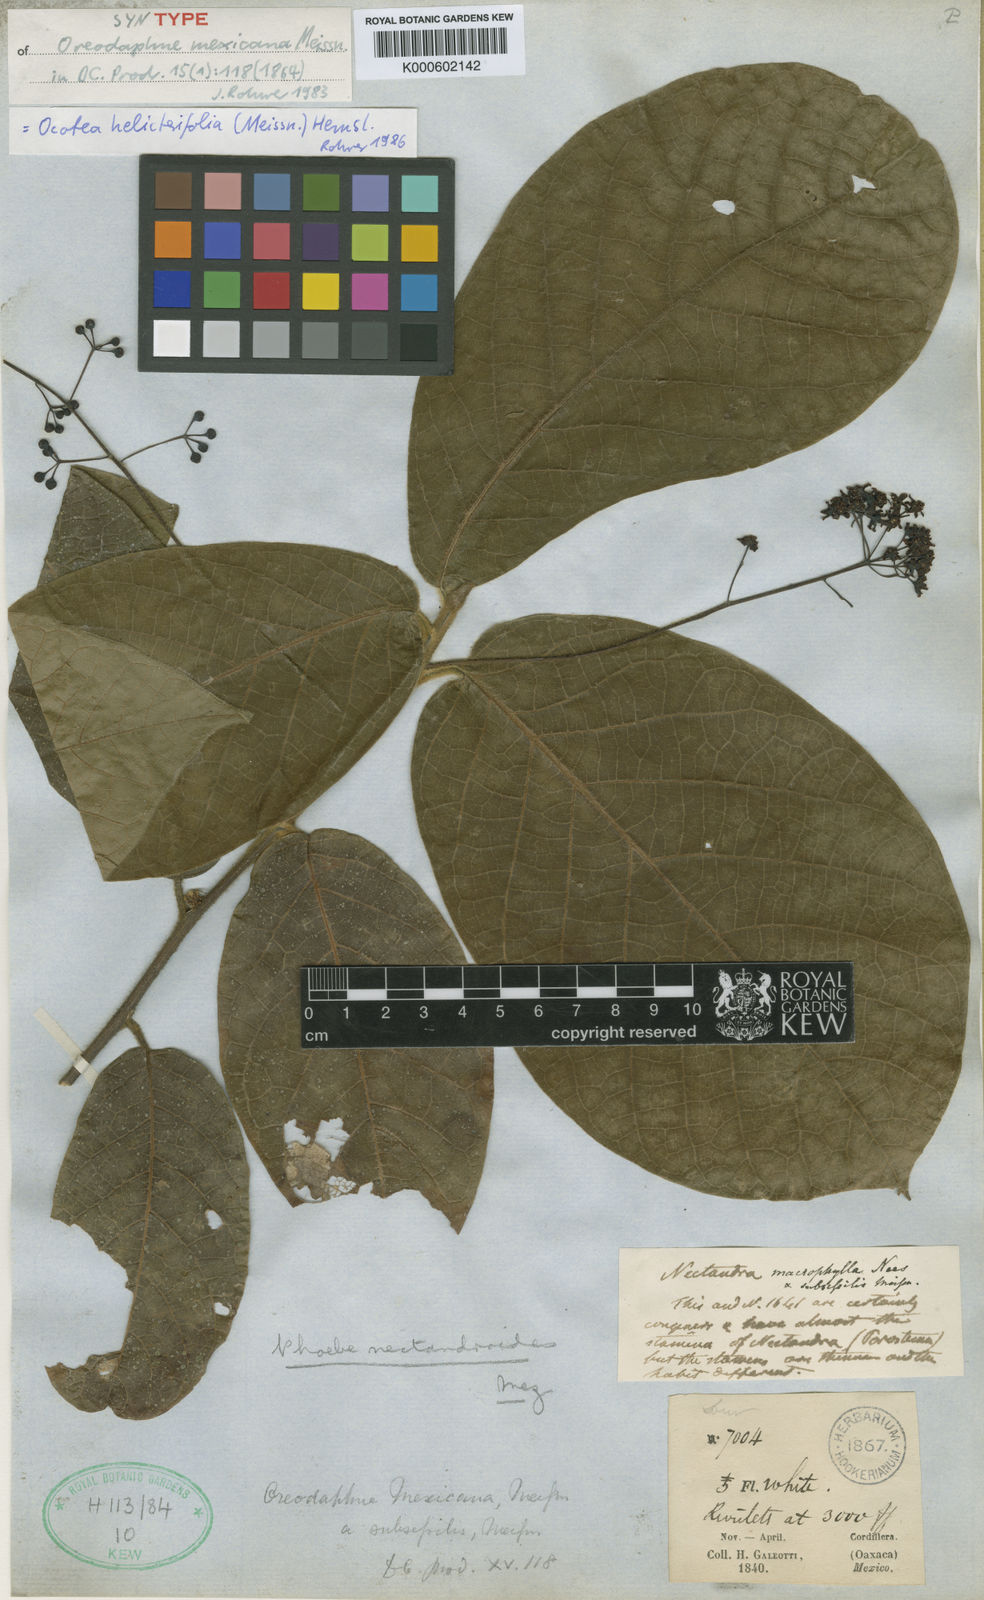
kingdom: Plantae
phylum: Tracheophyta
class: Magnoliopsida
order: Laurales
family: Lauraceae
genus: Ocotea
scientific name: Ocotea macrophylla
